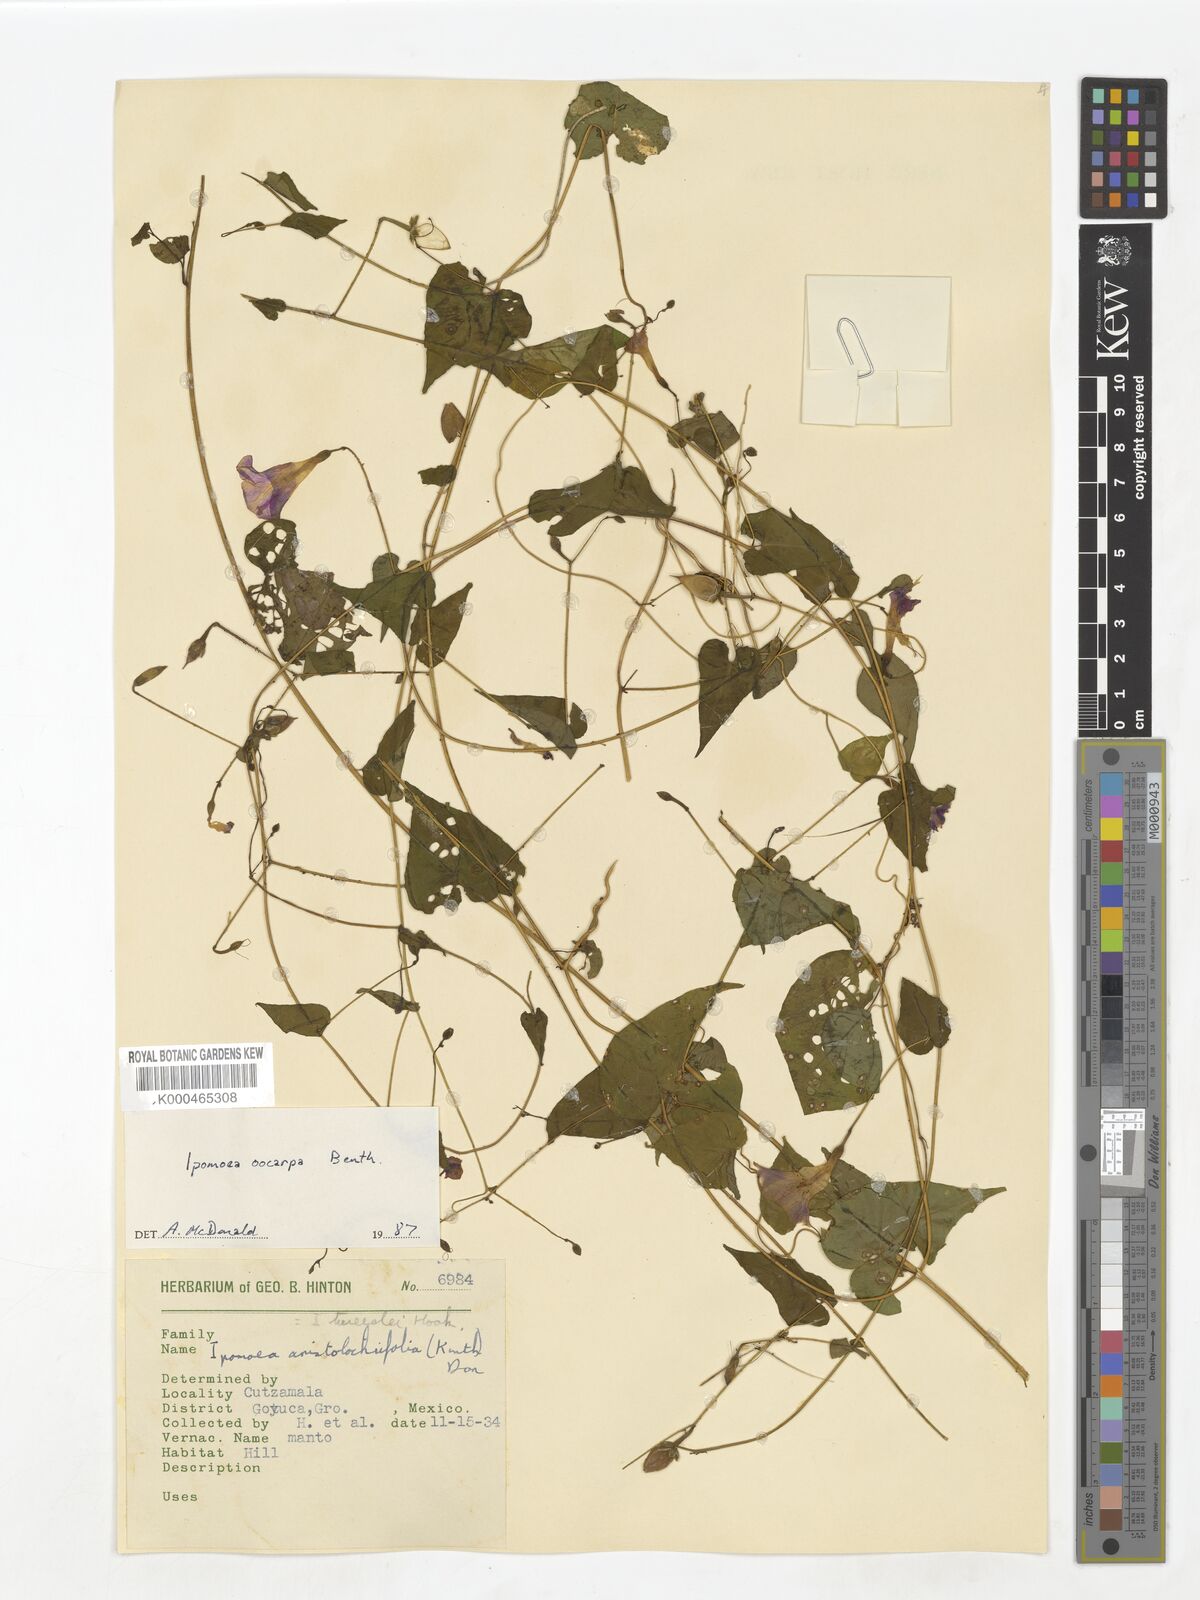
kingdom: Plantae
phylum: Tracheophyta
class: Magnoliopsida
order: Solanales
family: Convolvulaceae
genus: Ipomoea
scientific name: Ipomoea aristolochiifolia
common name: Aristolochia-leaved morning-glory
